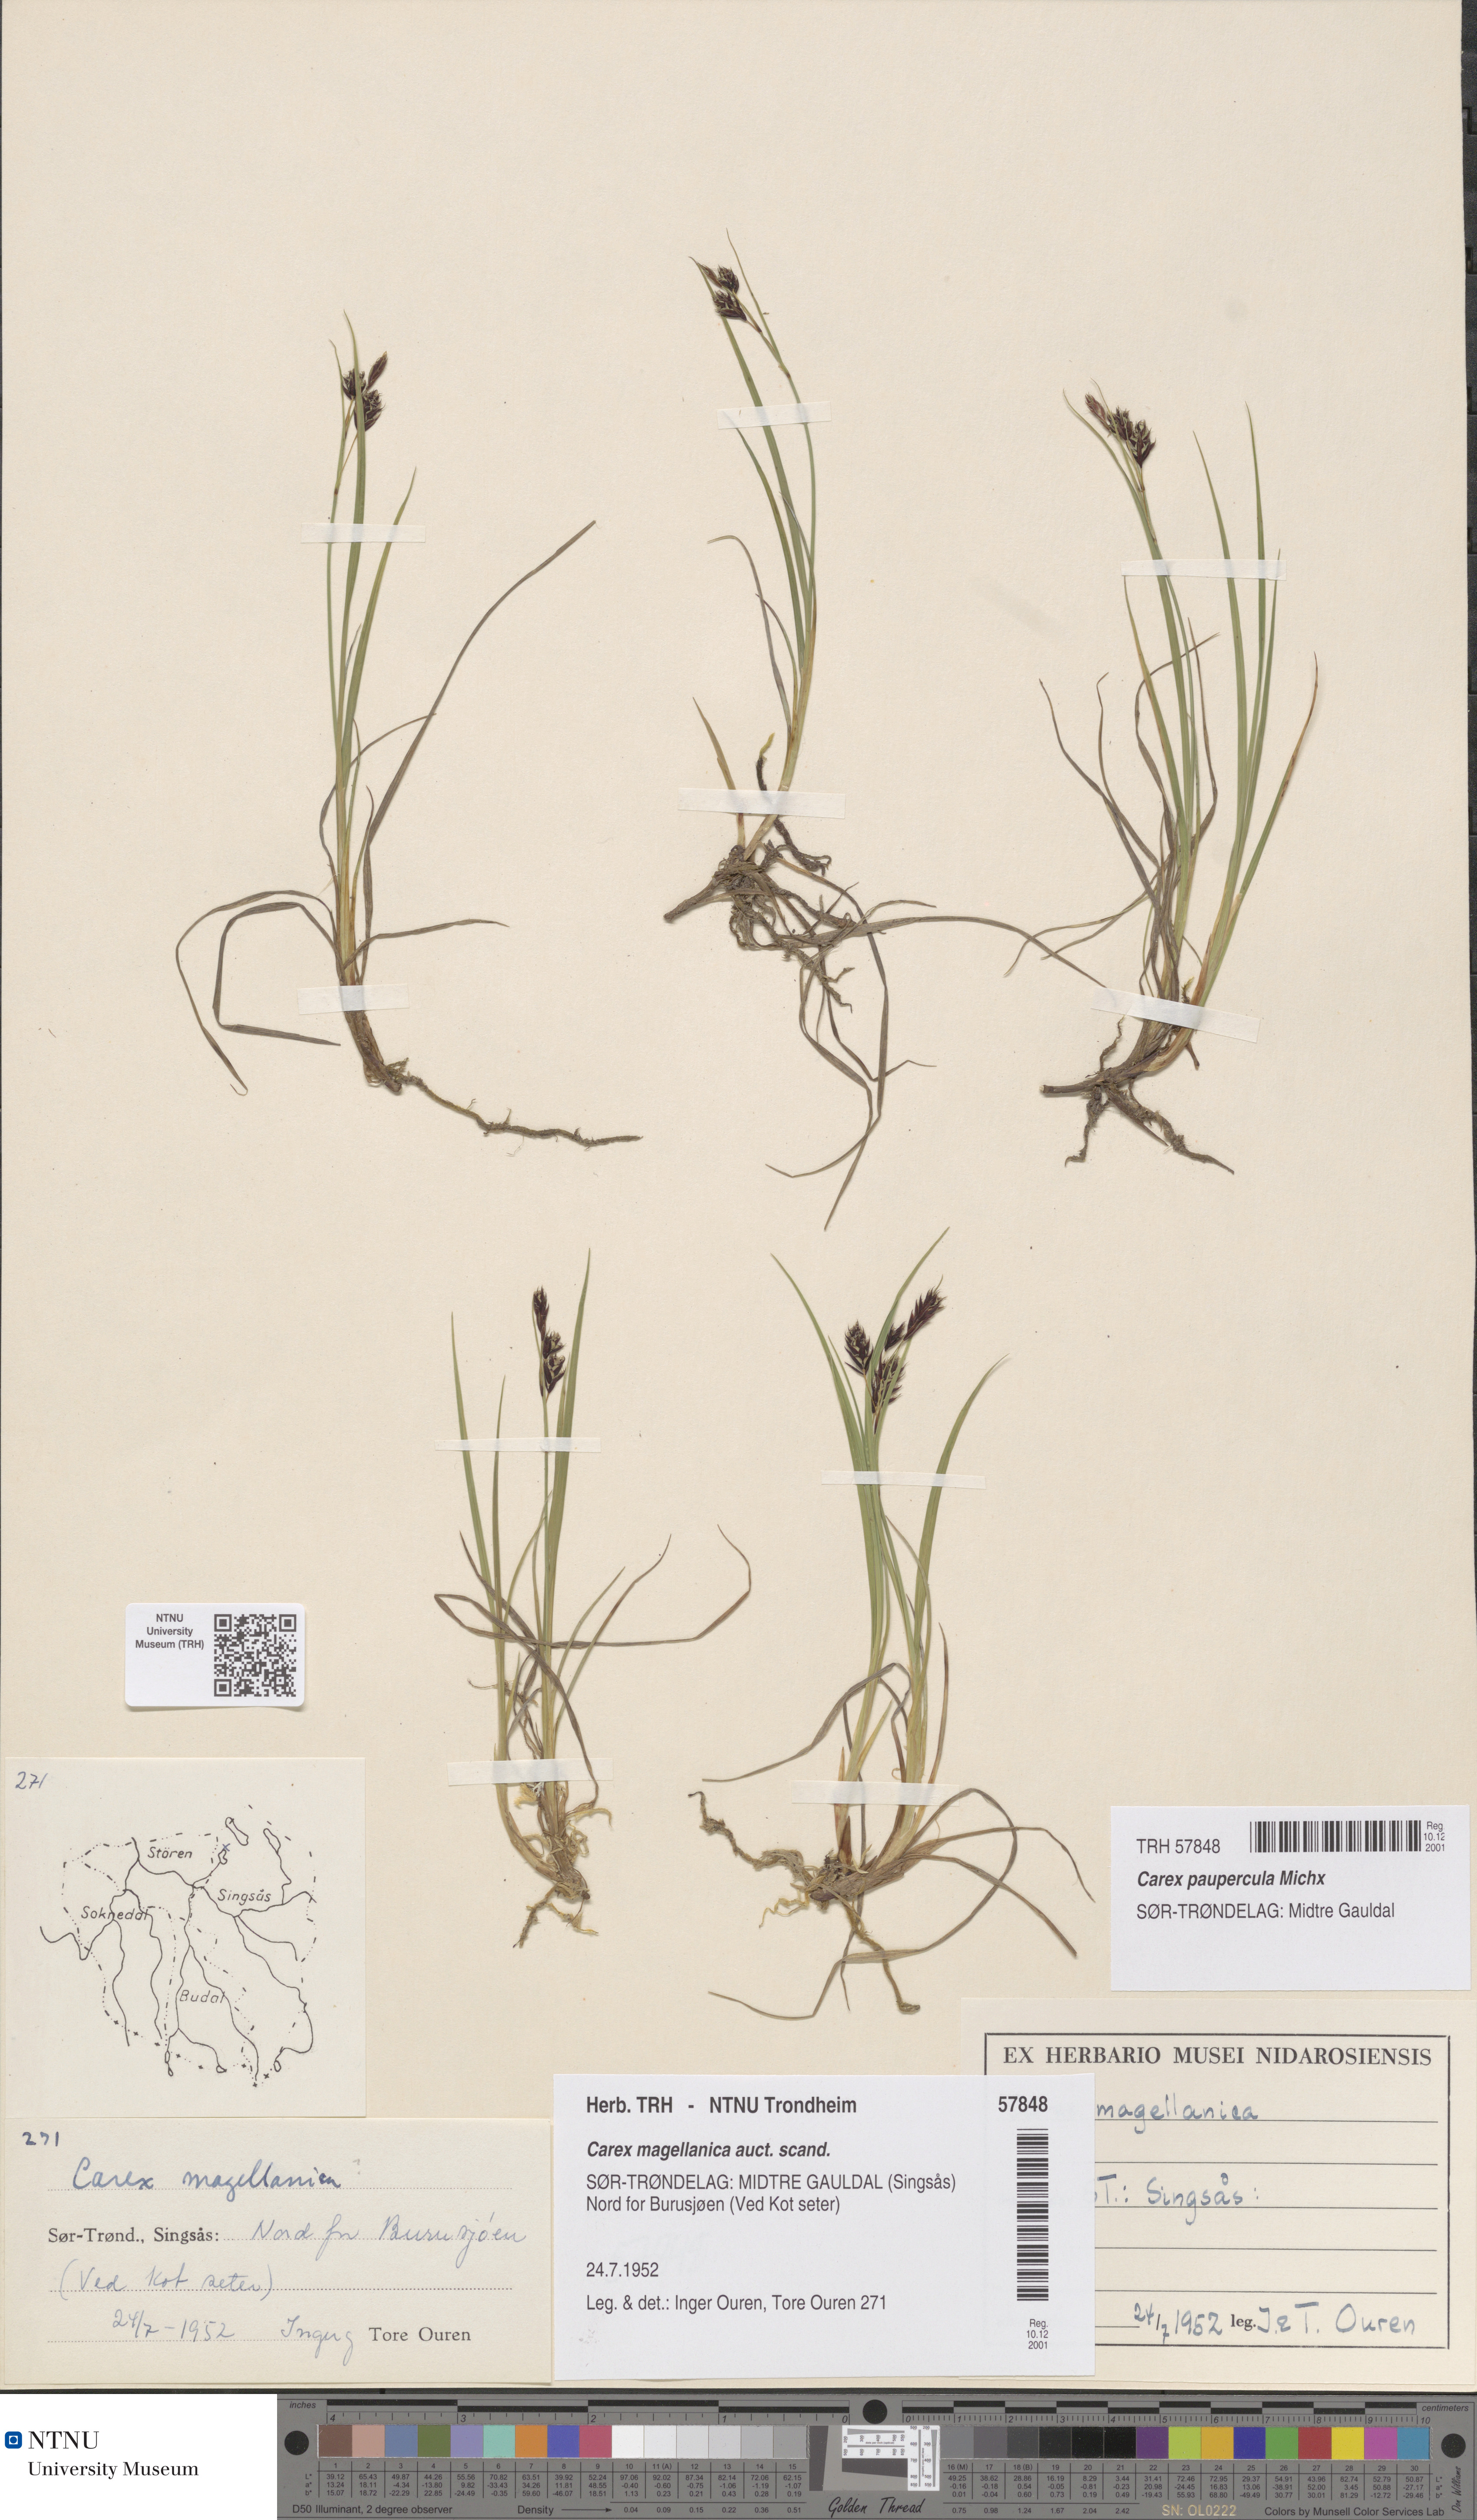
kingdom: Plantae
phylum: Tracheophyta
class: Liliopsida
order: Poales
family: Cyperaceae
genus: Carex
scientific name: Carex magellanica
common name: Bog sedge
